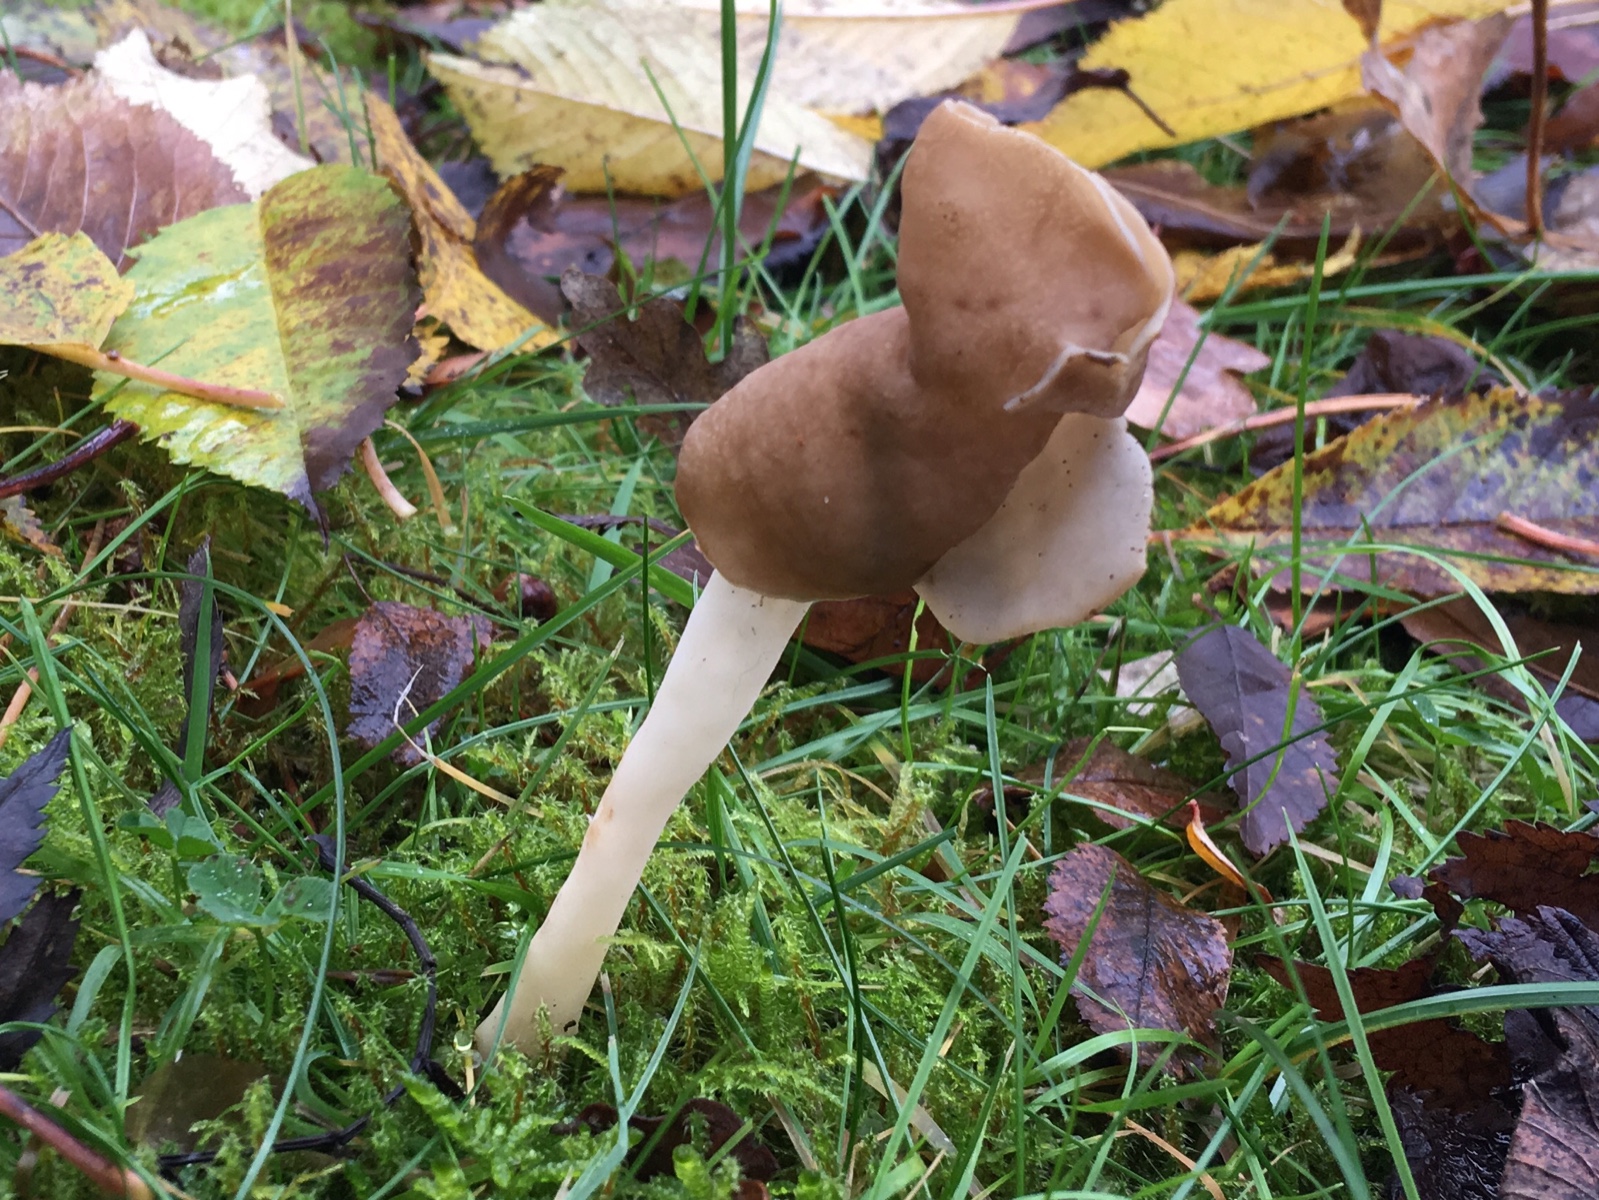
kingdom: Fungi
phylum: Ascomycota
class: Pezizomycetes
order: Pezizales
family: Helvellaceae
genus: Helvella
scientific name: Helvella elastica
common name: elastik-foldhat
